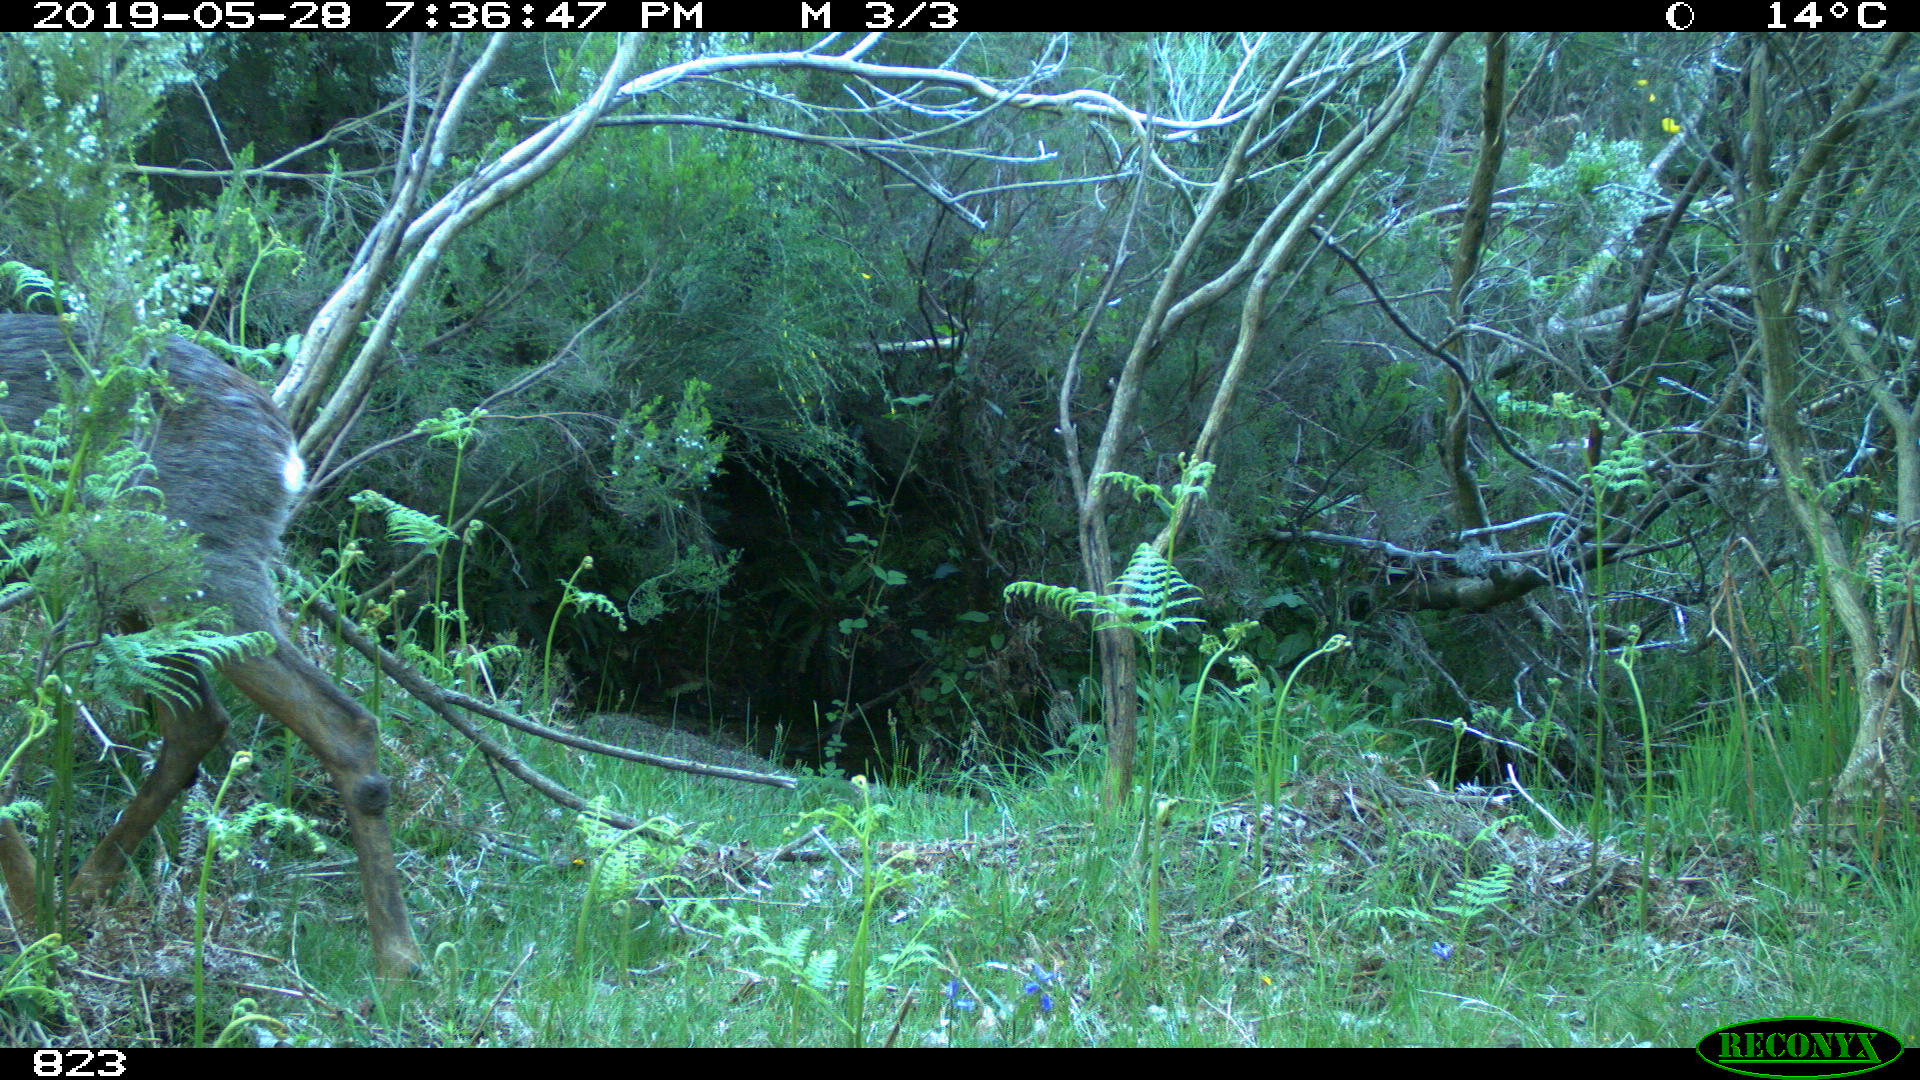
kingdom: Animalia
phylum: Chordata
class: Mammalia
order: Artiodactyla
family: Cervidae
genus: Capreolus
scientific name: Capreolus capreolus
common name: Western roe deer
